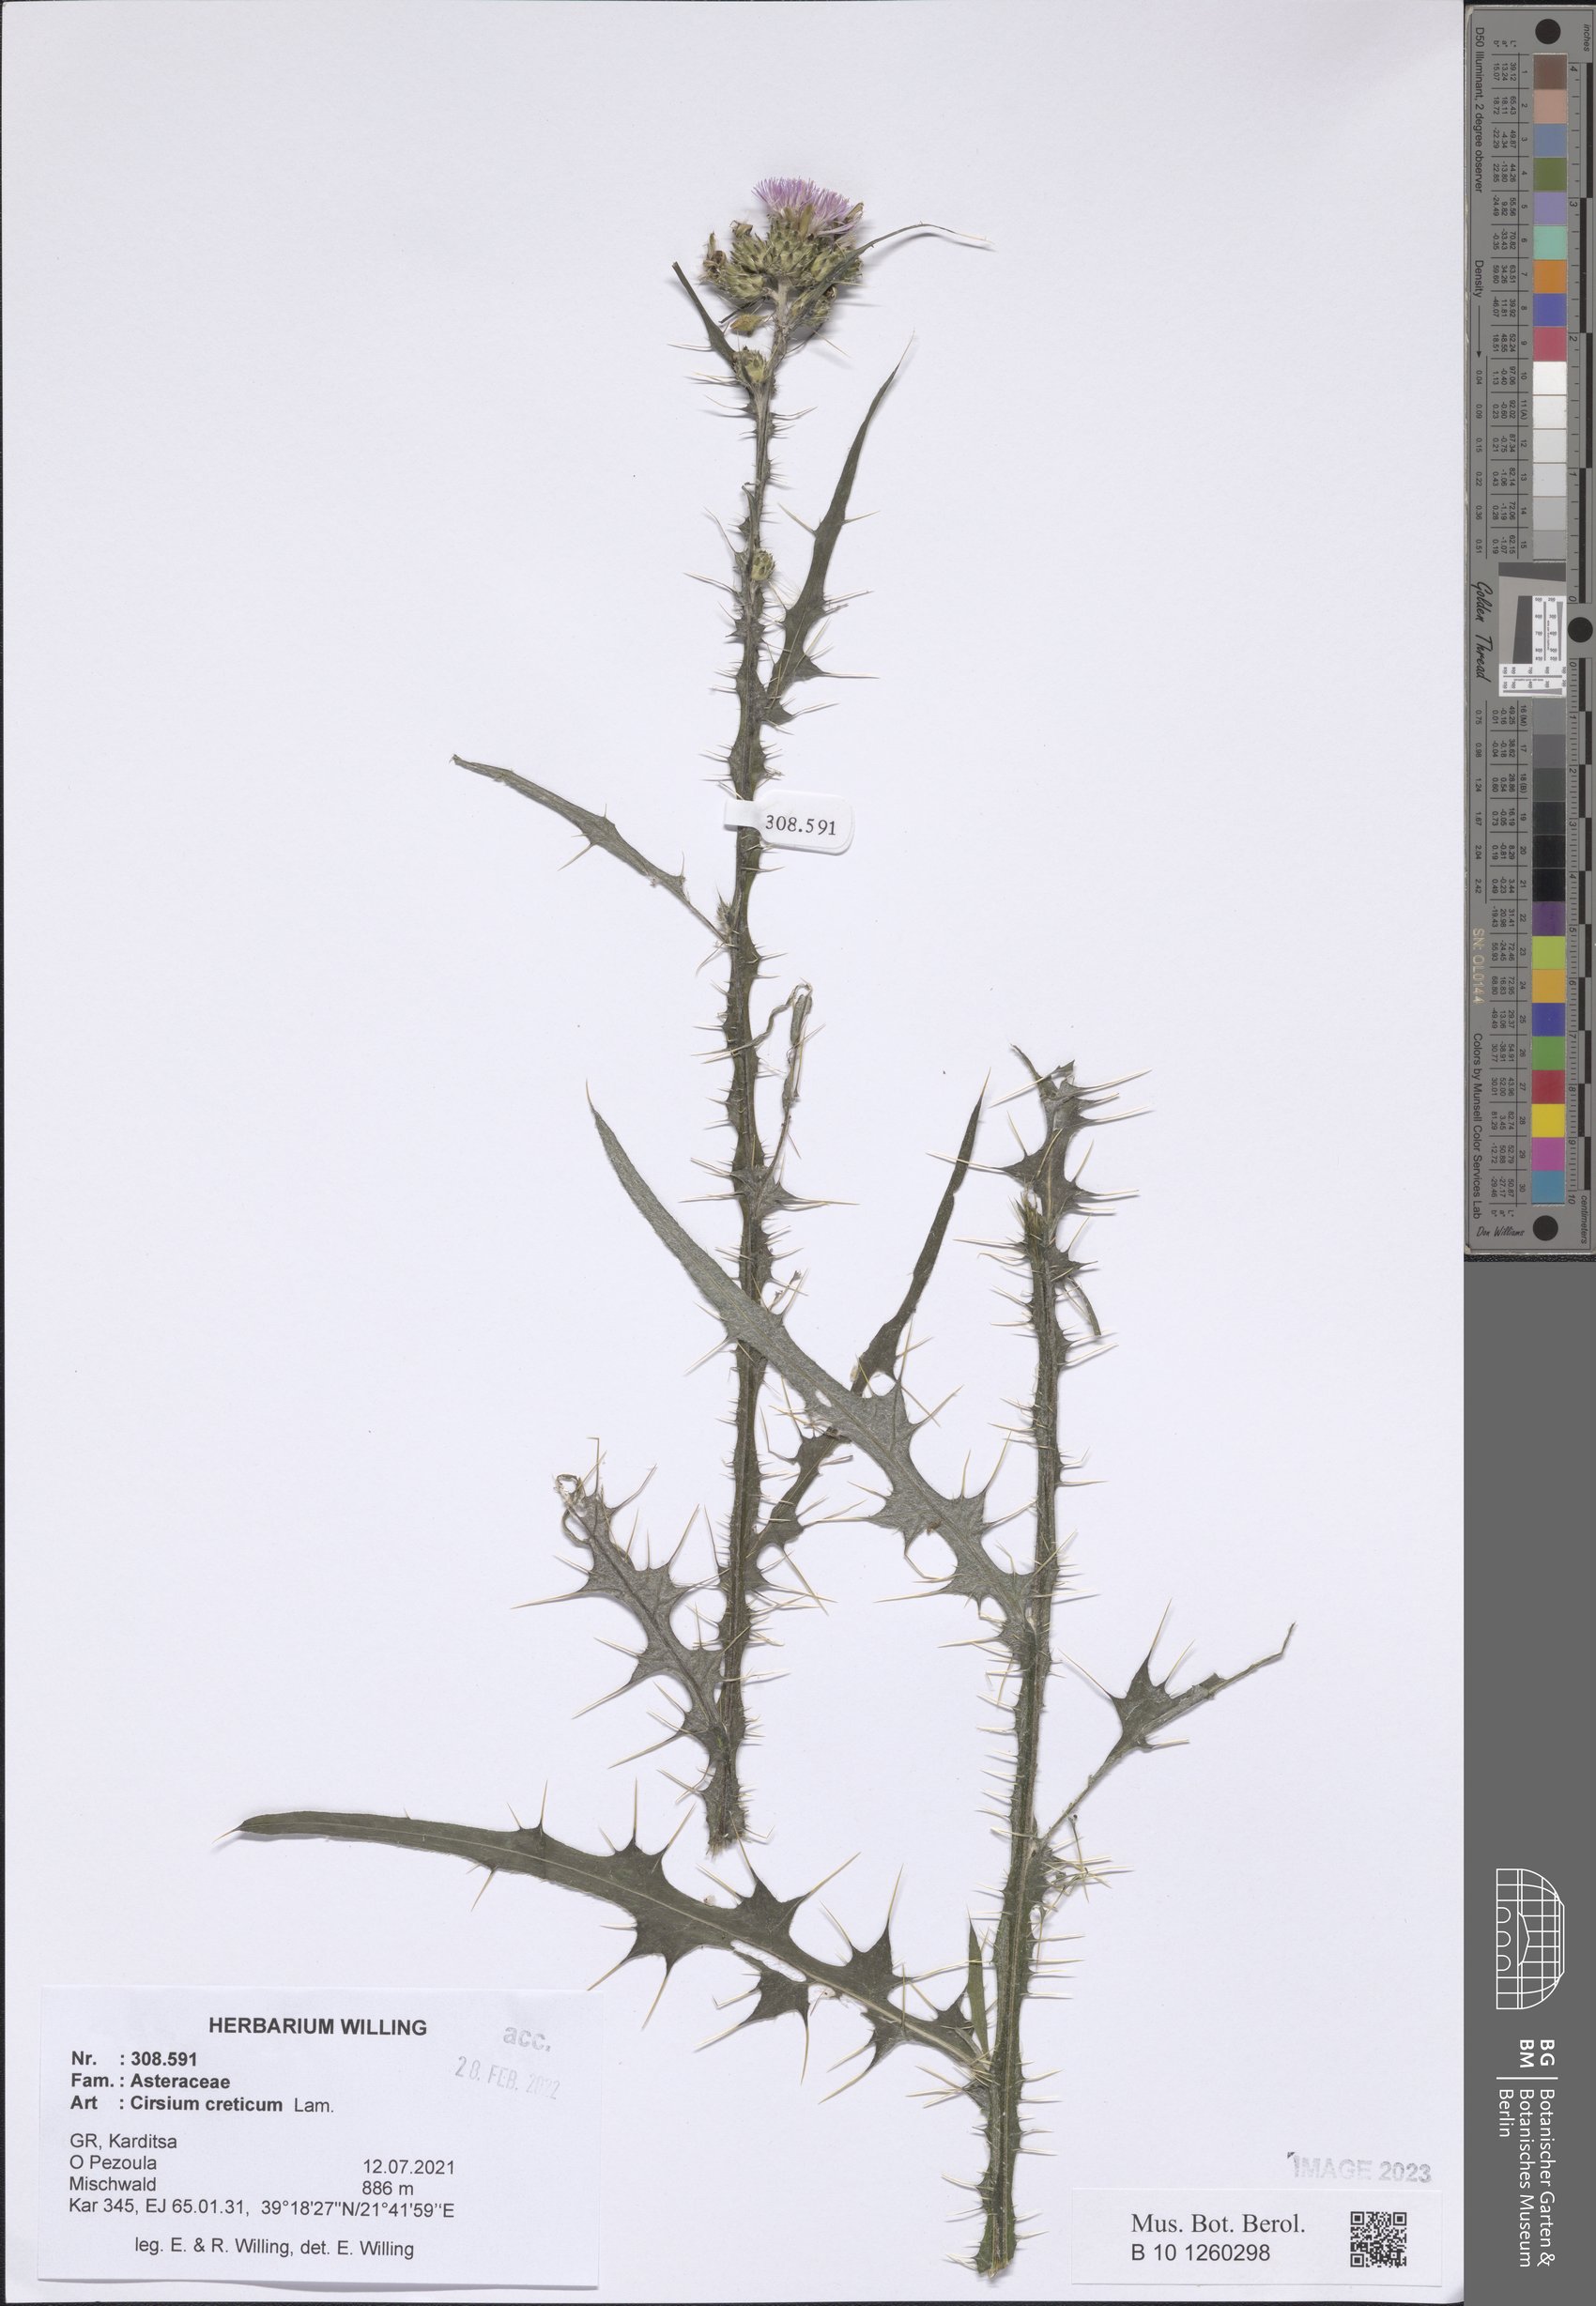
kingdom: Plantae
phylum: Tracheophyta
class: Magnoliopsida
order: Asterales
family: Asteraceae
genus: Cirsium
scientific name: Cirsium creticum
